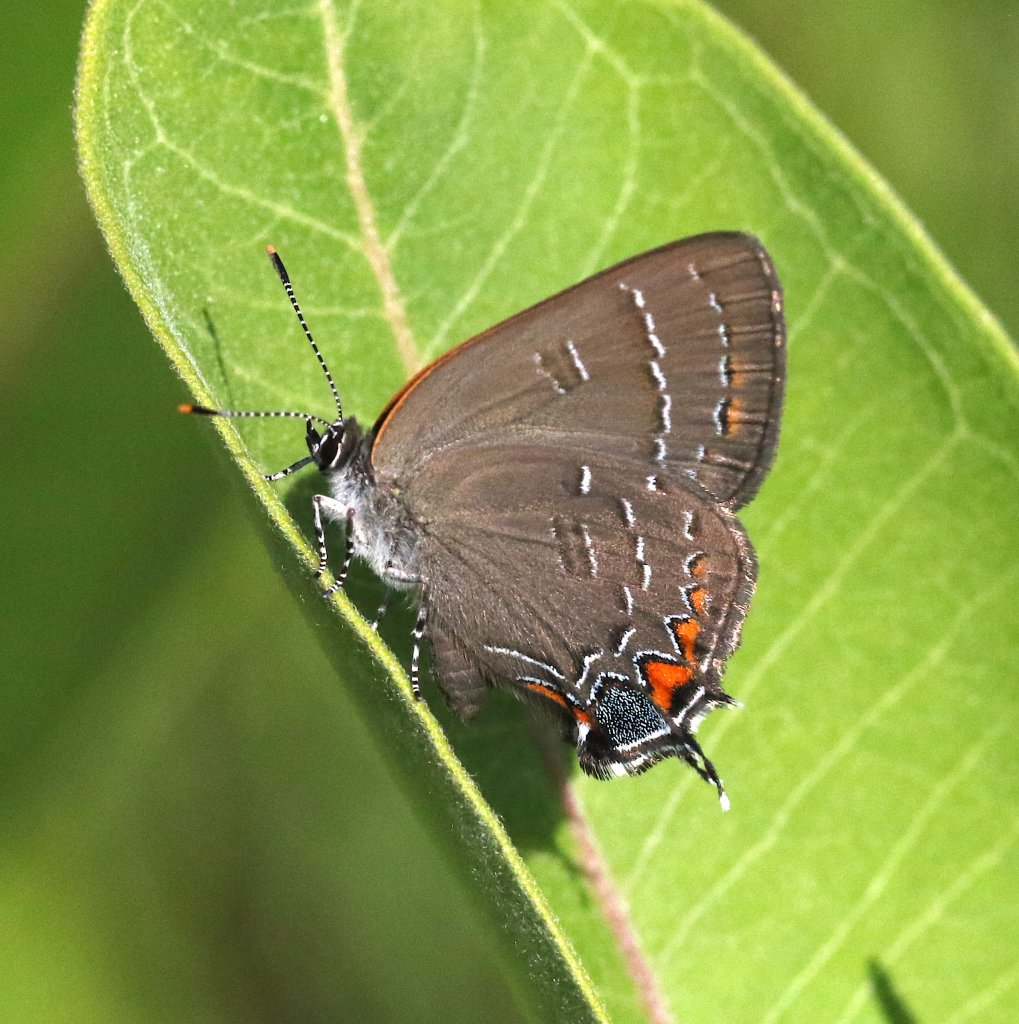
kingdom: Animalia
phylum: Arthropoda
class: Insecta
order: Lepidoptera
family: Lycaenidae
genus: Satyrium
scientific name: Satyrium calanus
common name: Banded Hairstreak
